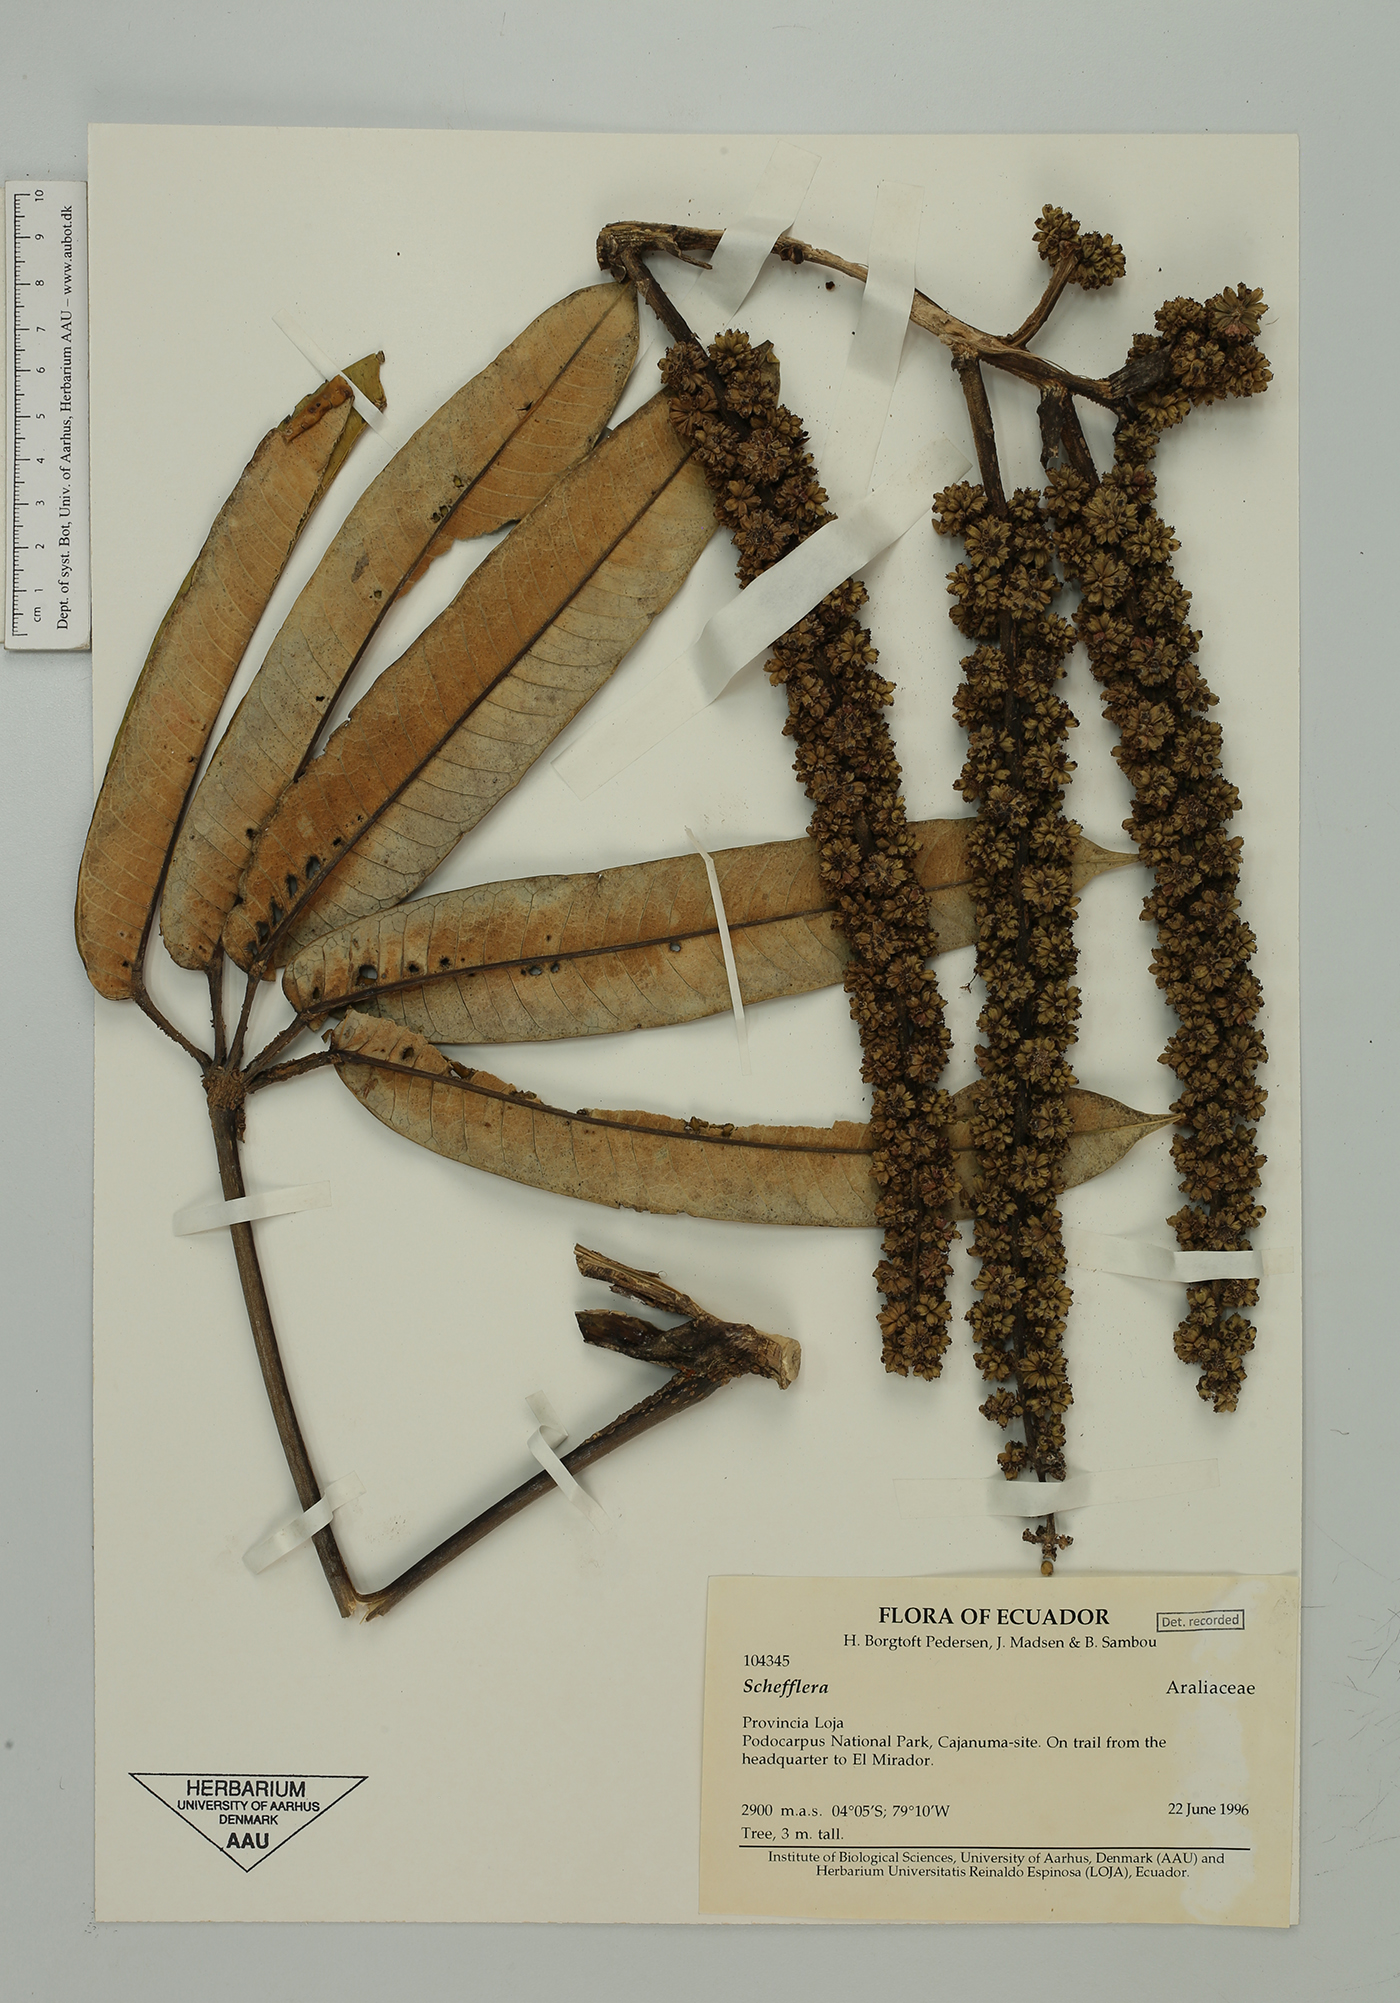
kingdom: Plantae
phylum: Tracheophyta
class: Magnoliopsida
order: Apiales
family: Araliaceae
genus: Sciodaphyllum
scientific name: Sciodaphyllum
